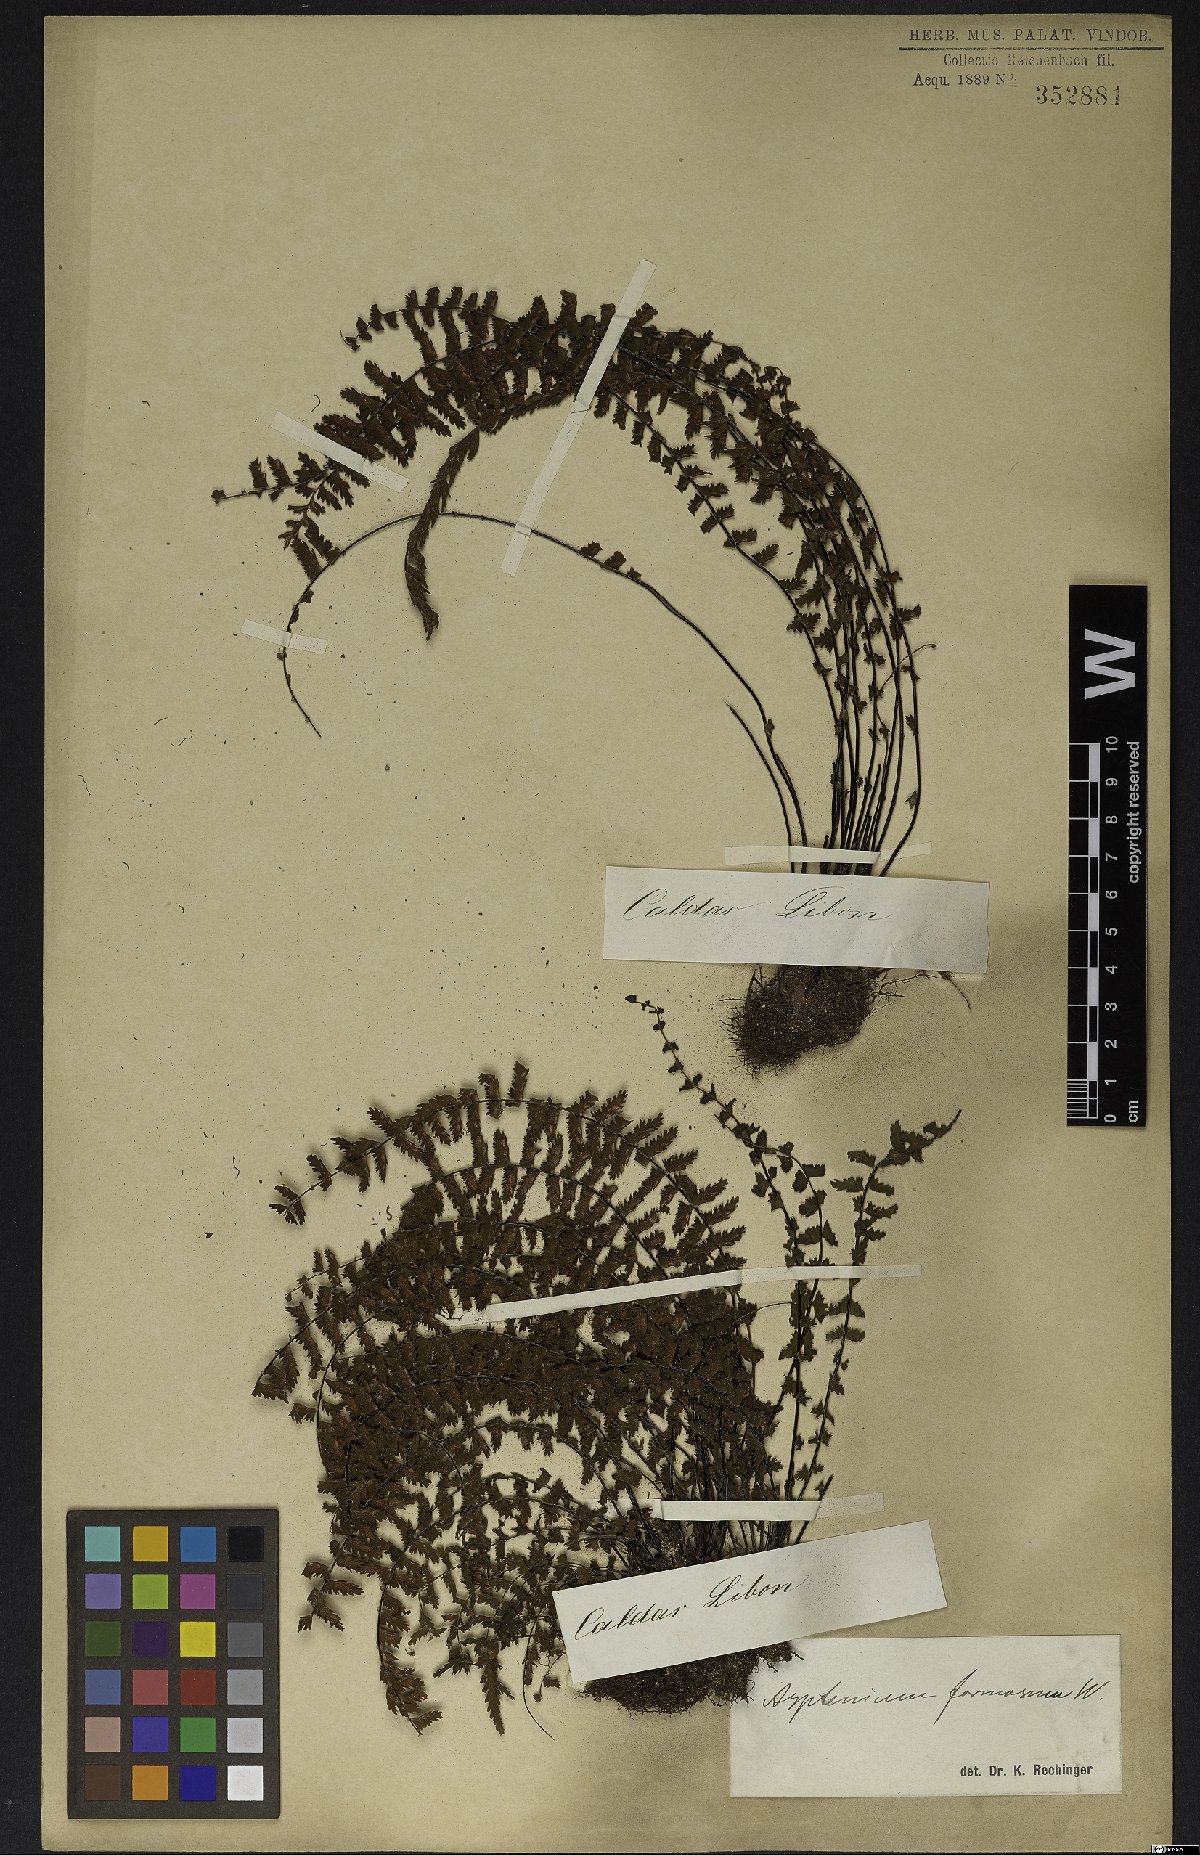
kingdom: Plantae
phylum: Tracheophyta
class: Polypodiopsida
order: Polypodiales
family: Aspleniaceae
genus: Asplenium
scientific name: Asplenium formosum
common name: Showy spleenwort
